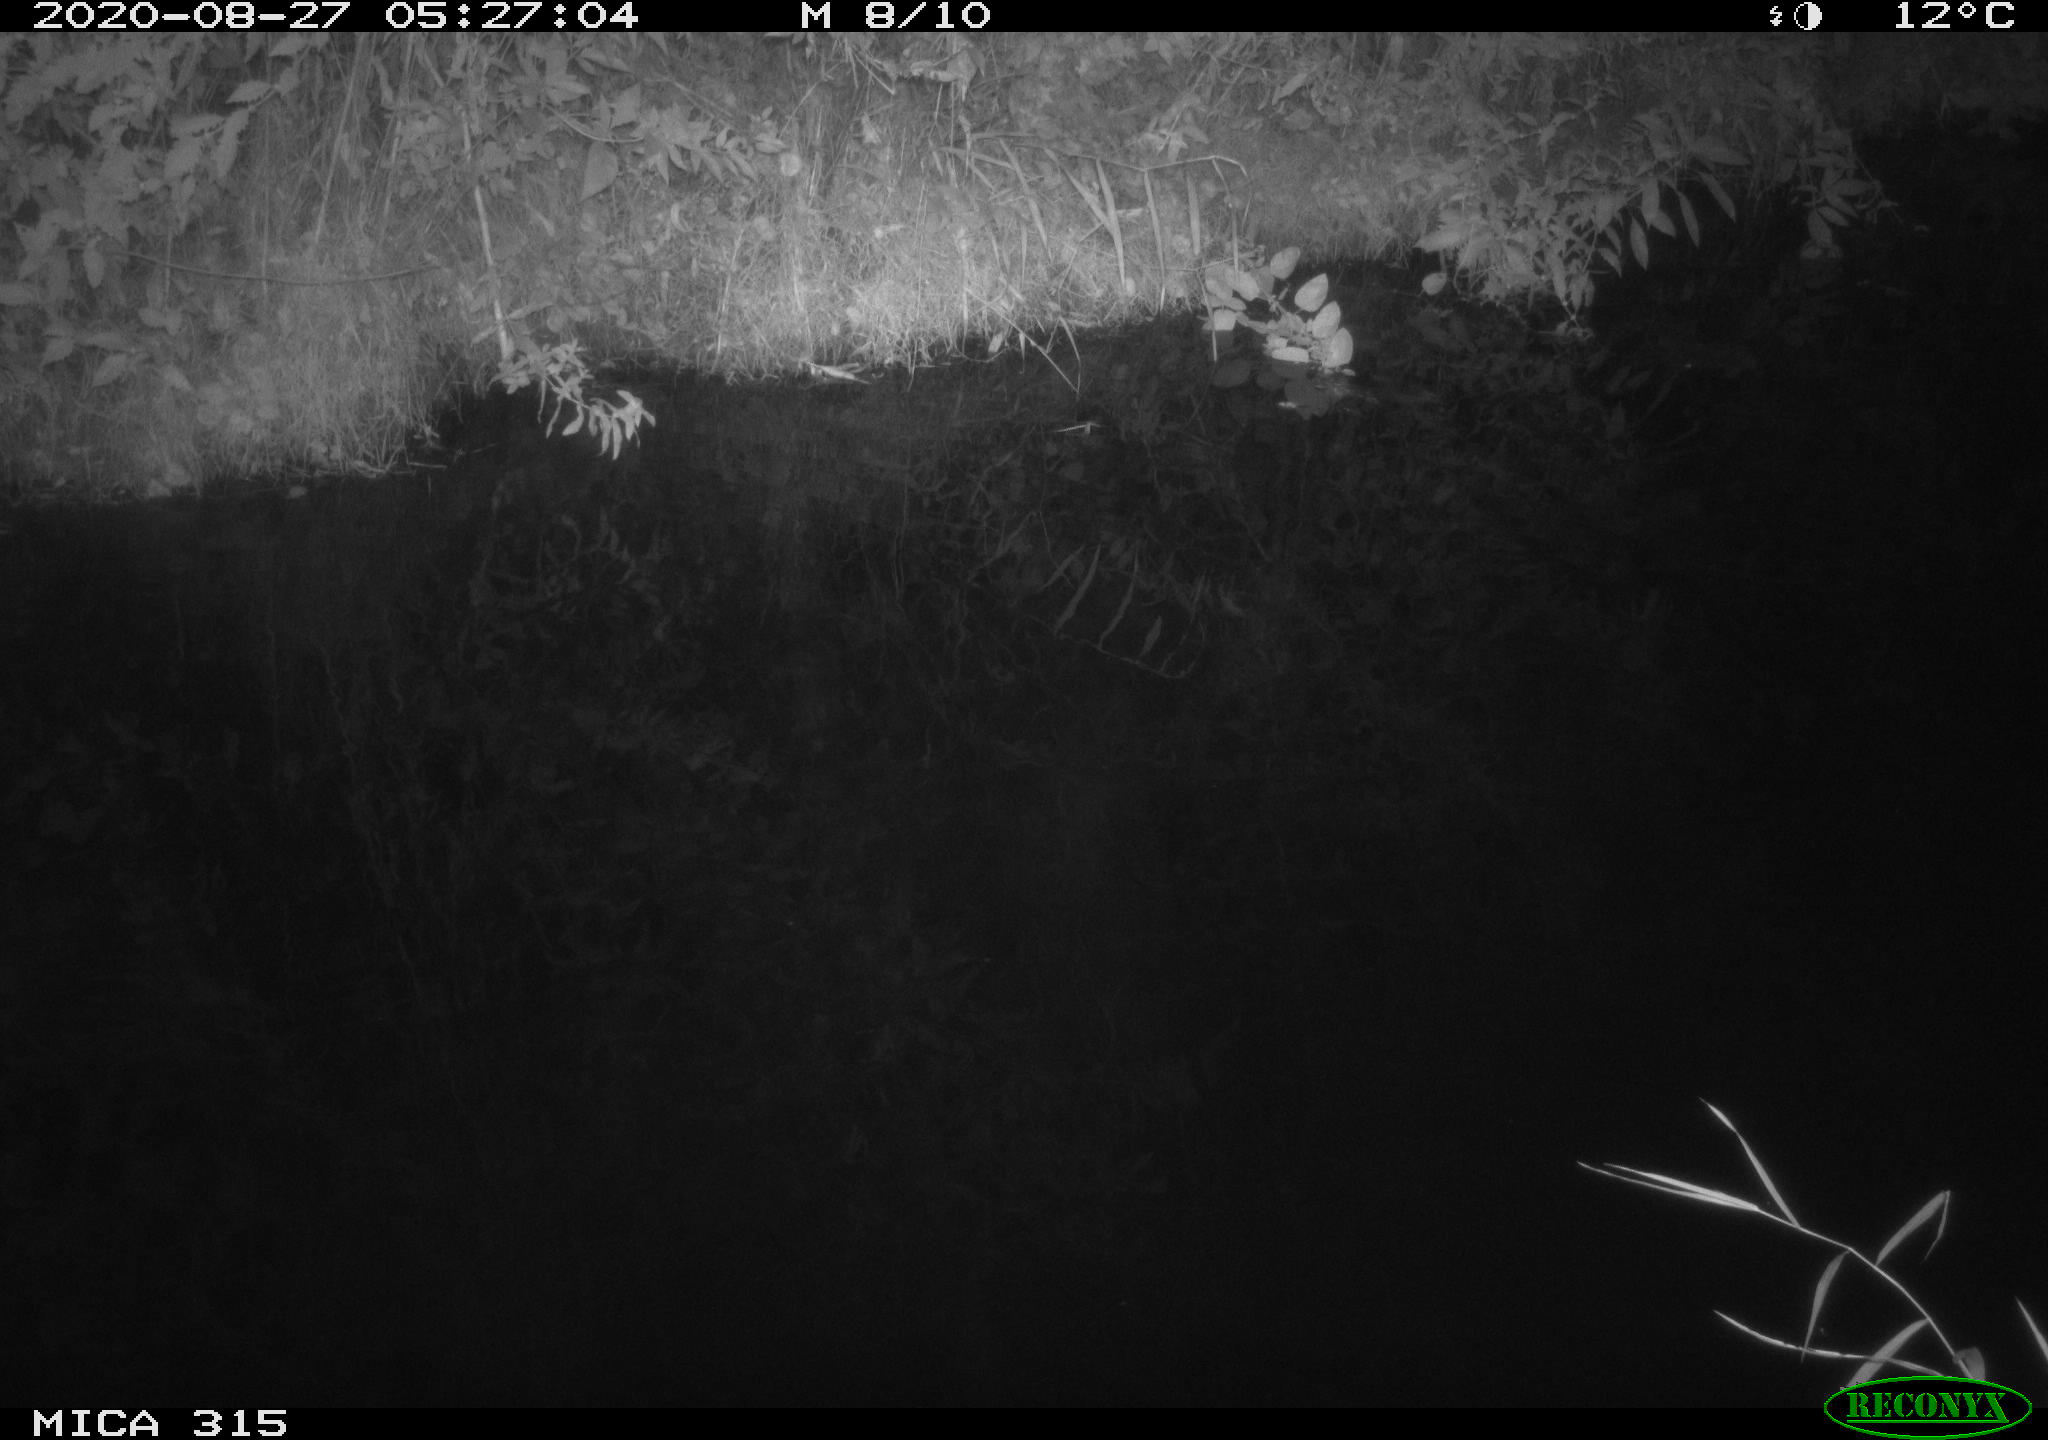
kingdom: Animalia
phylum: Chordata
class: Aves
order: Anseriformes
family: Anatidae
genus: Anas
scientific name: Anas platyrhynchos
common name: Mallard
